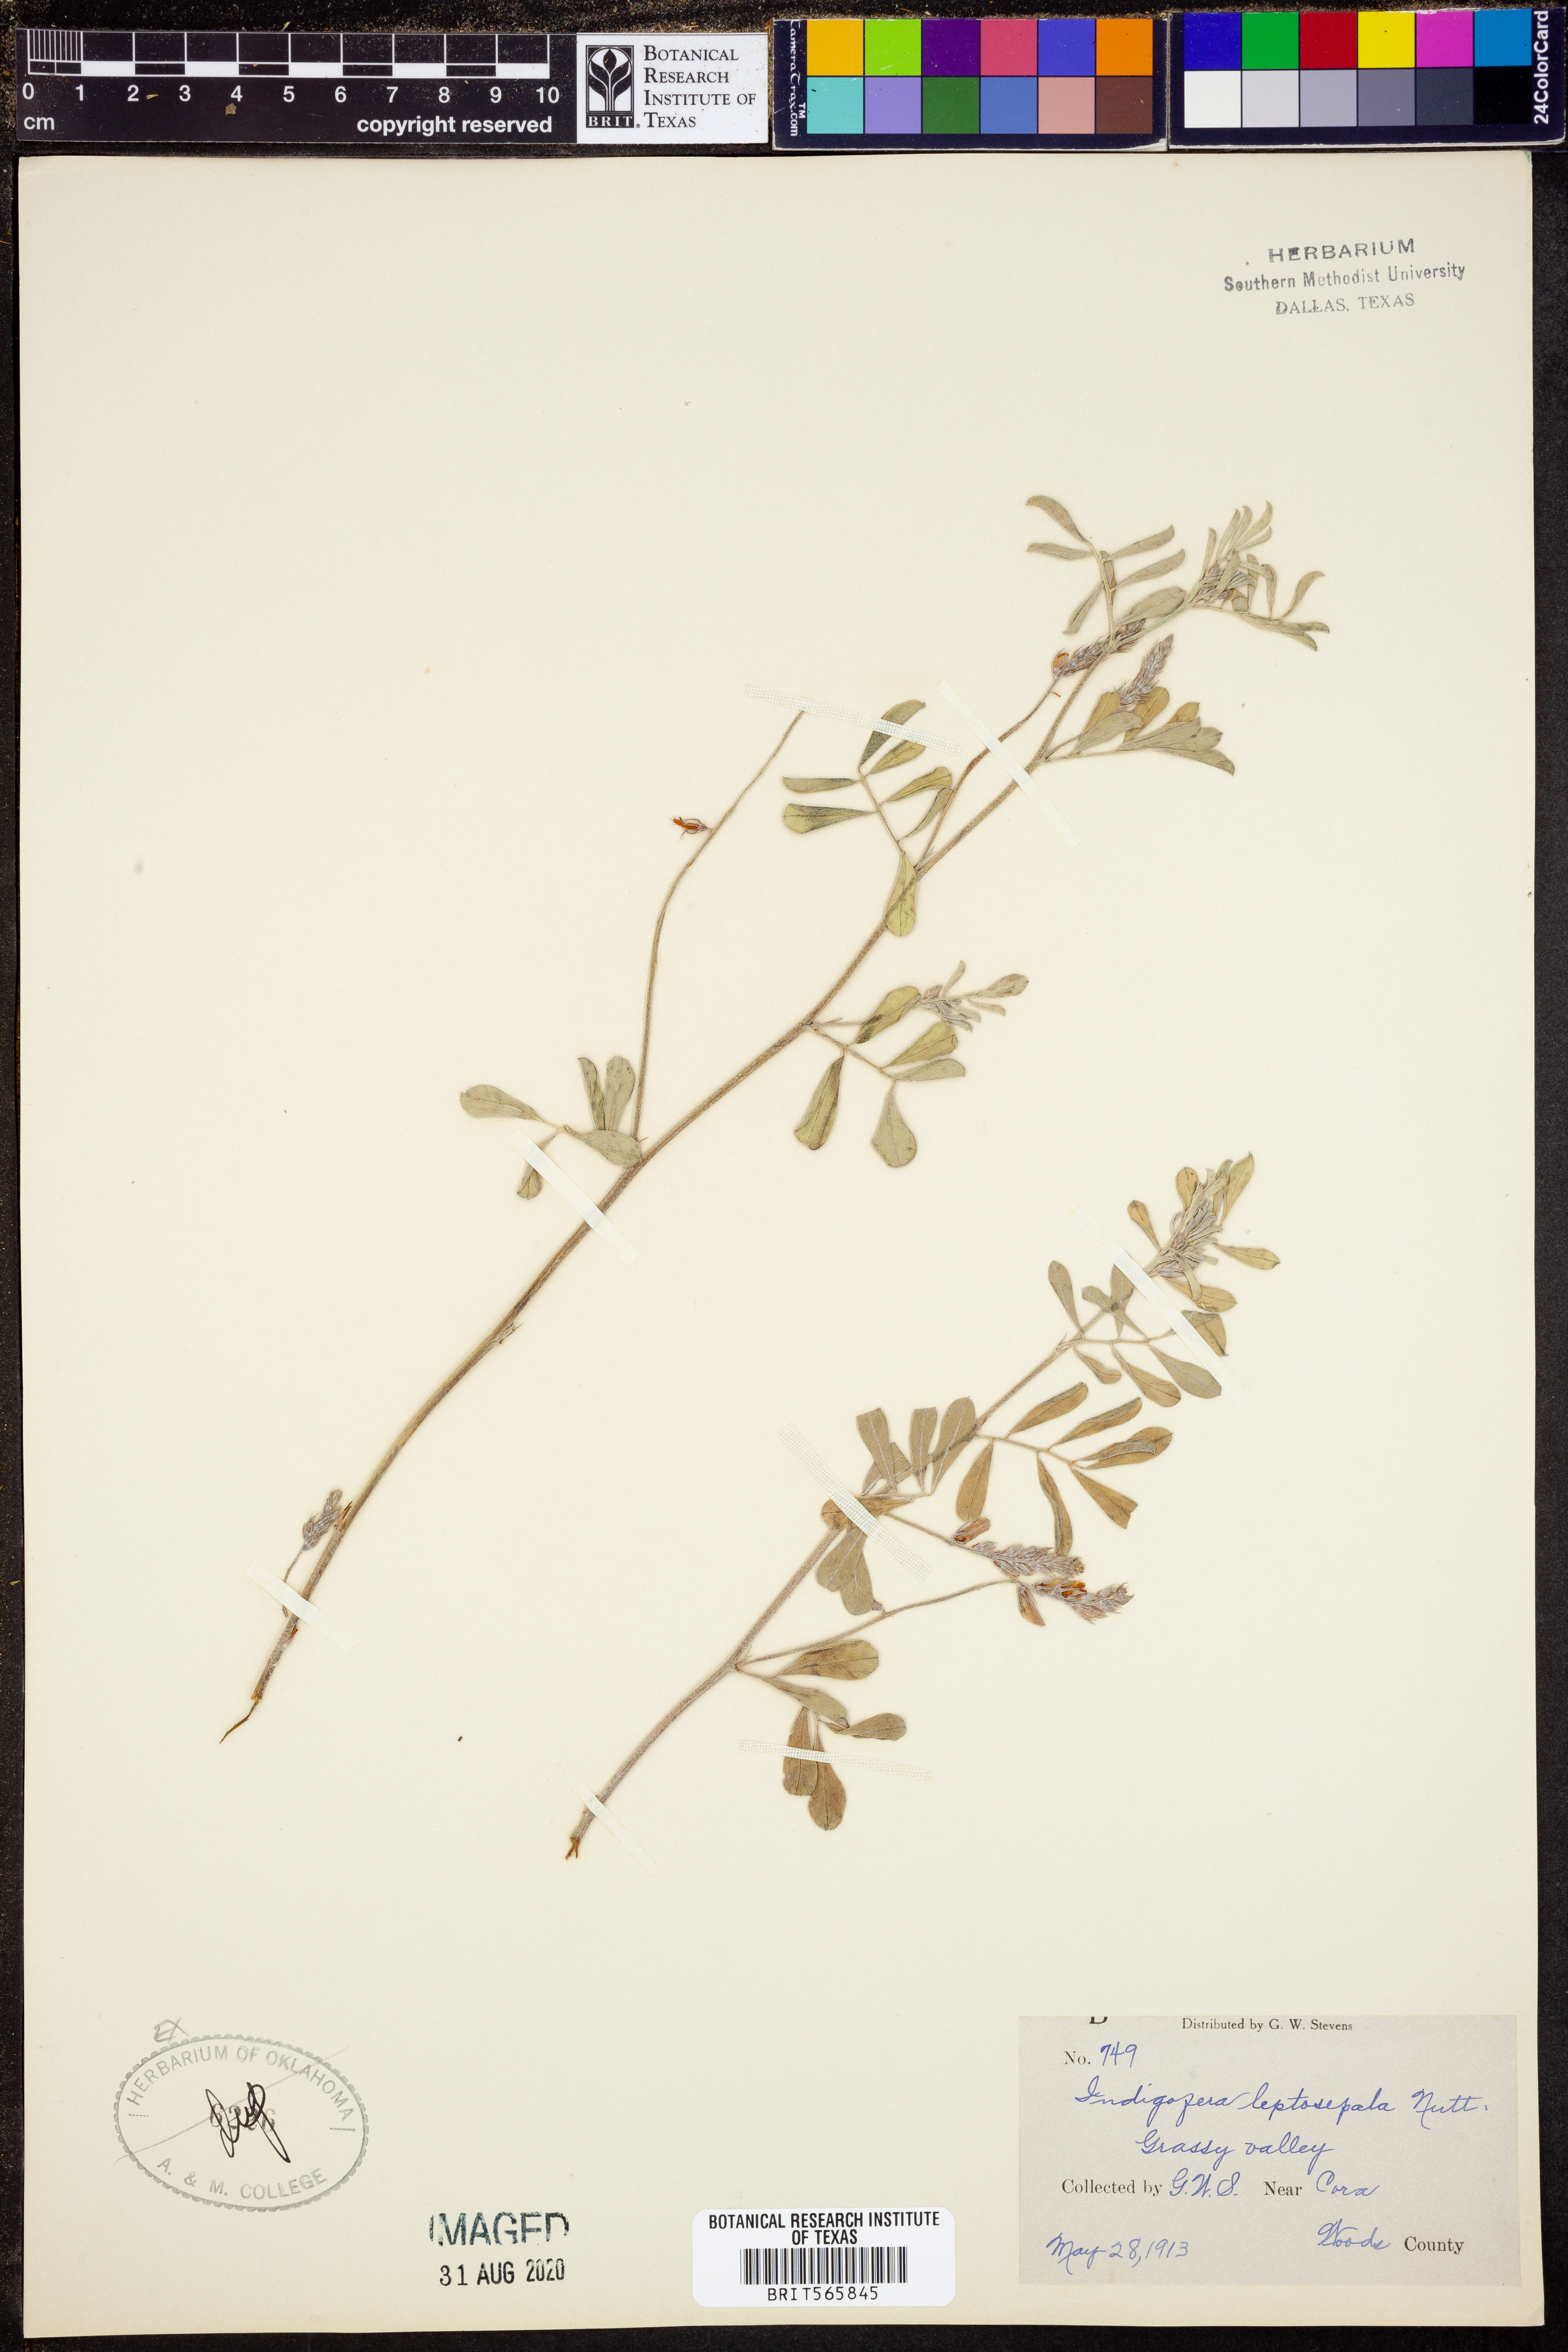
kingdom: Plantae
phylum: Tracheophyta
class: Magnoliopsida
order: Fabales
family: Fabaceae
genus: Indigofera
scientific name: Indigofera argutidens
